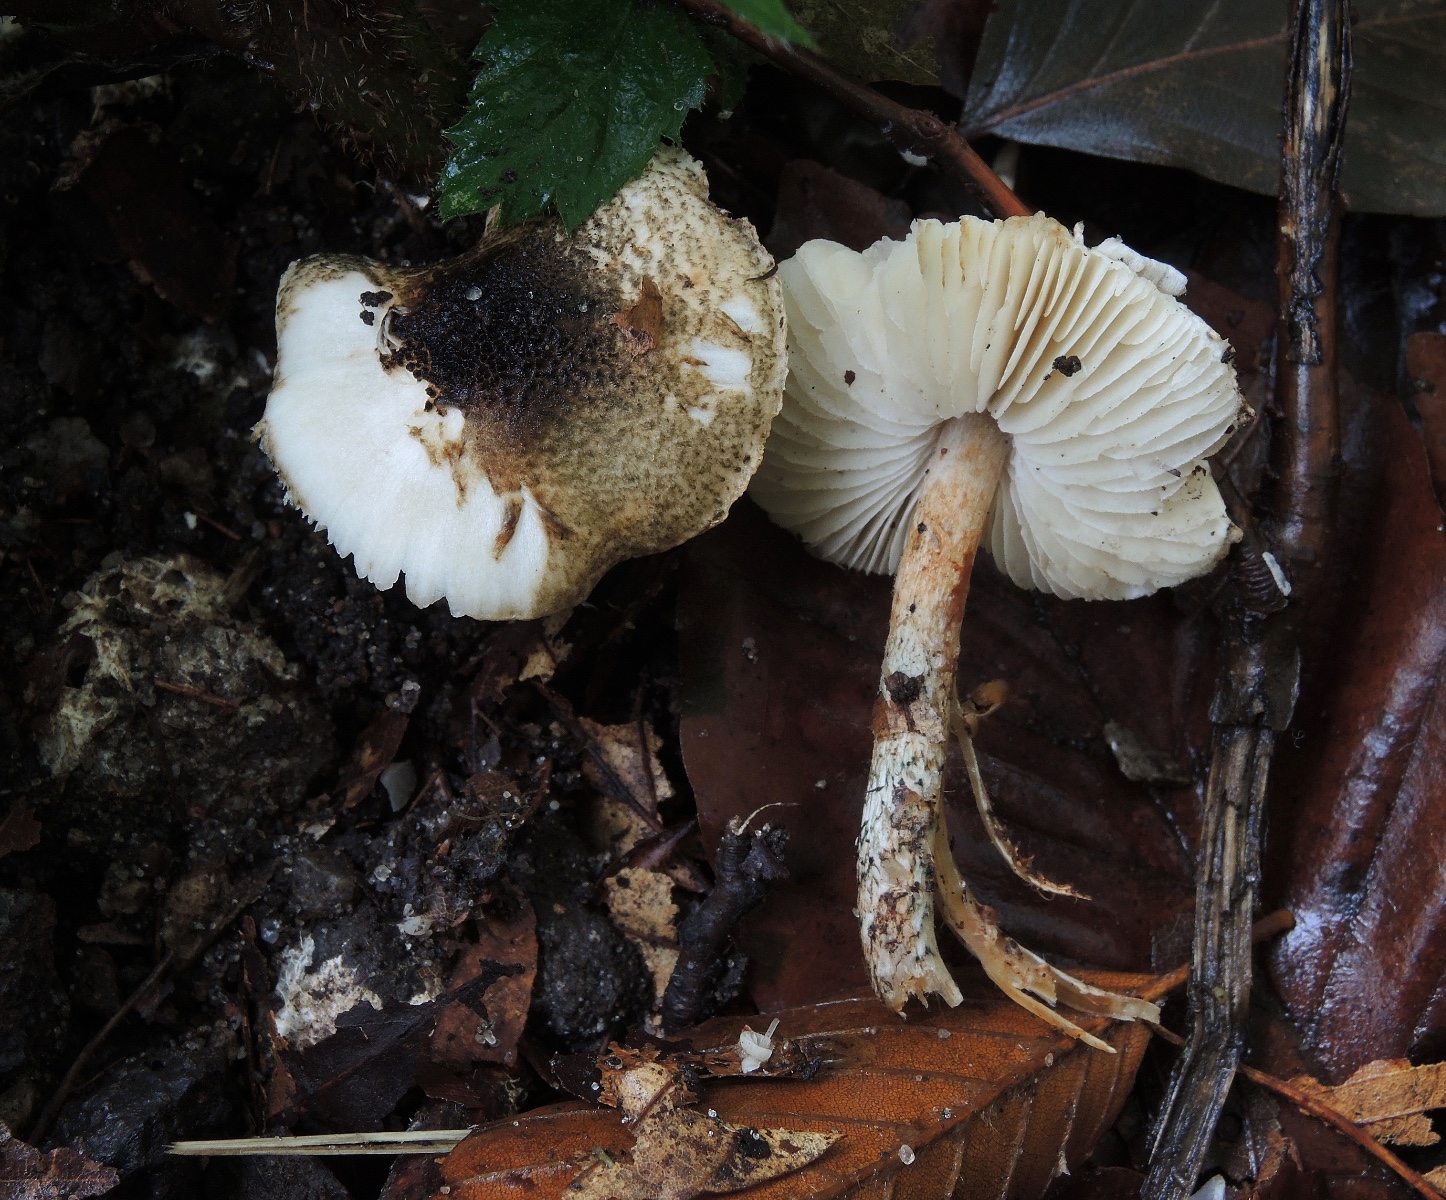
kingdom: Fungi
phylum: Basidiomycota
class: Agaricomycetes
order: Agaricales
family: Agaricaceae
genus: Lepiota
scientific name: Lepiota grangei
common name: grønskællet parasolhat
